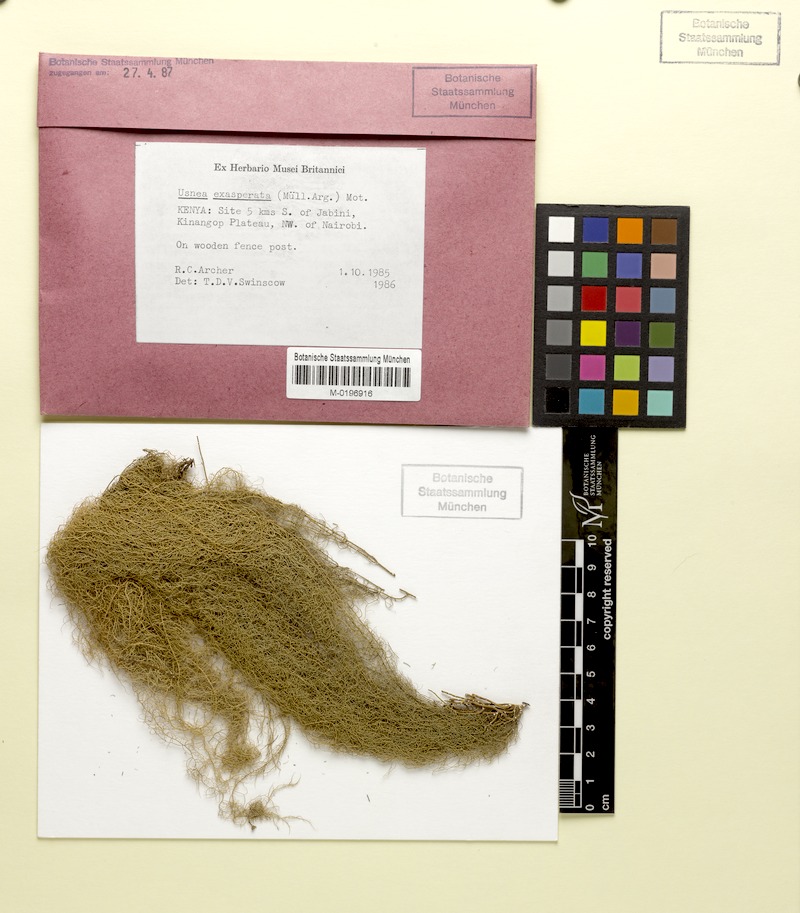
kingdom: Fungi
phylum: Ascomycota
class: Lecanoromycetes
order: Lecanorales
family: Parmeliaceae
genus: Xanthoparmelia
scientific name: Xanthoparmelia amplexula
